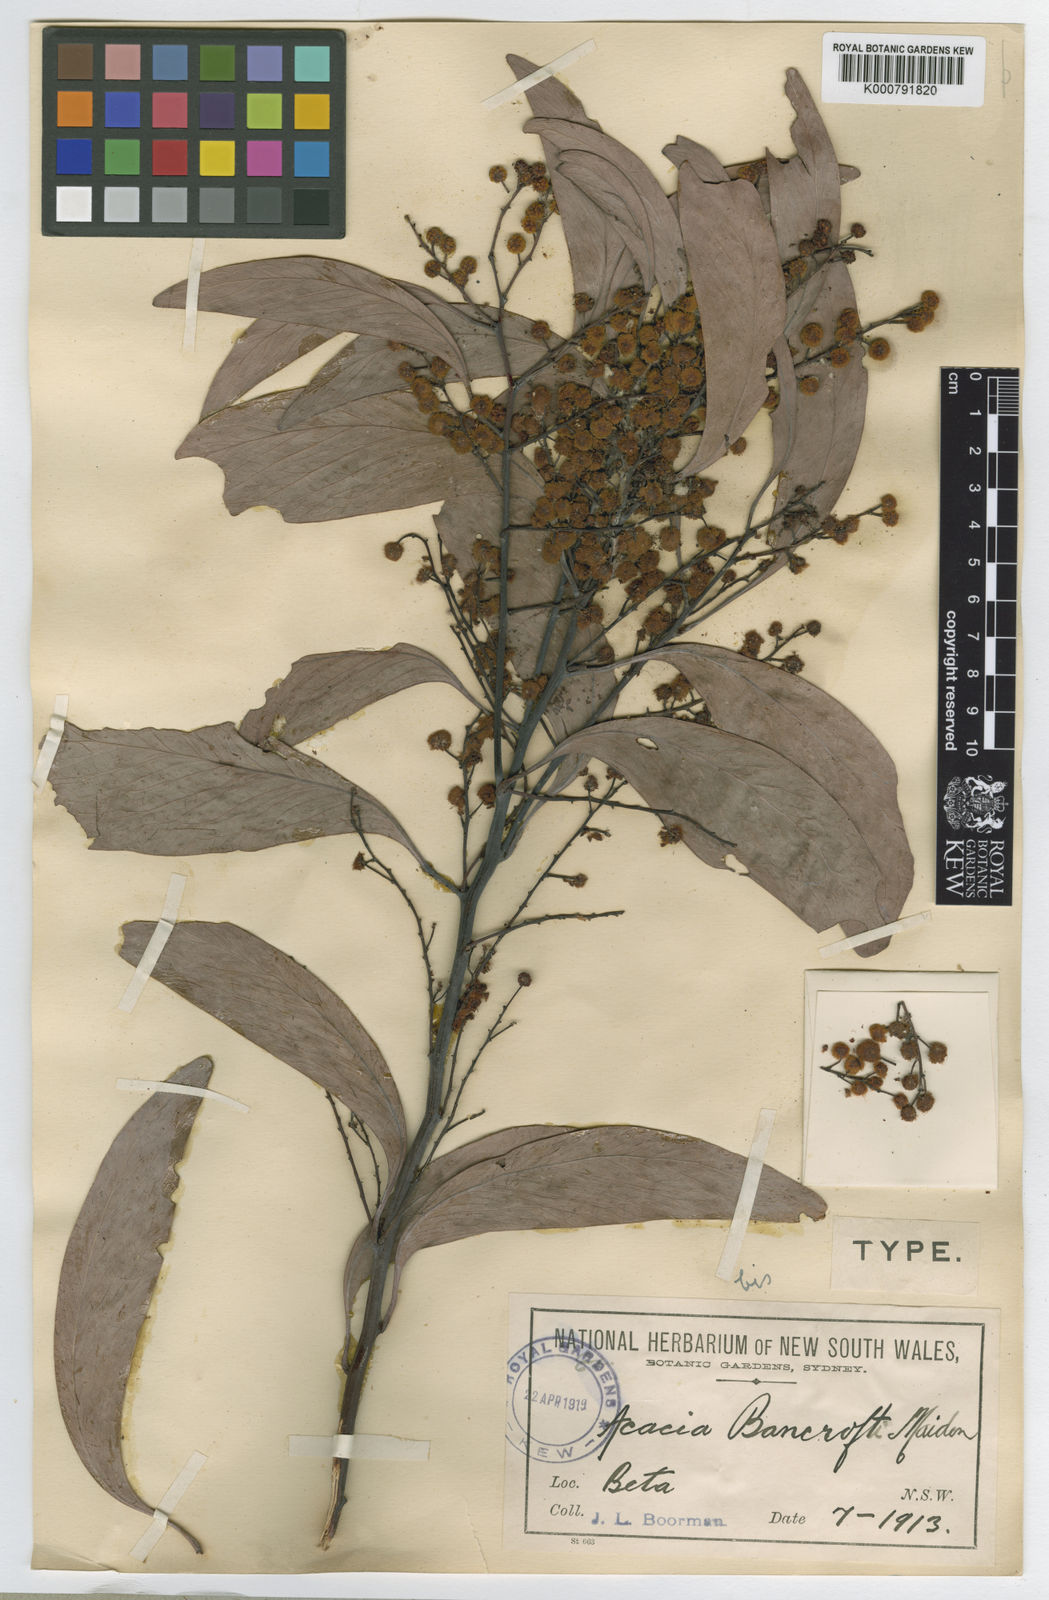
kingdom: Plantae
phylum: Tracheophyta
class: Magnoliopsida
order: Fabales
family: Fabaceae
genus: Acacia
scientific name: Acacia
